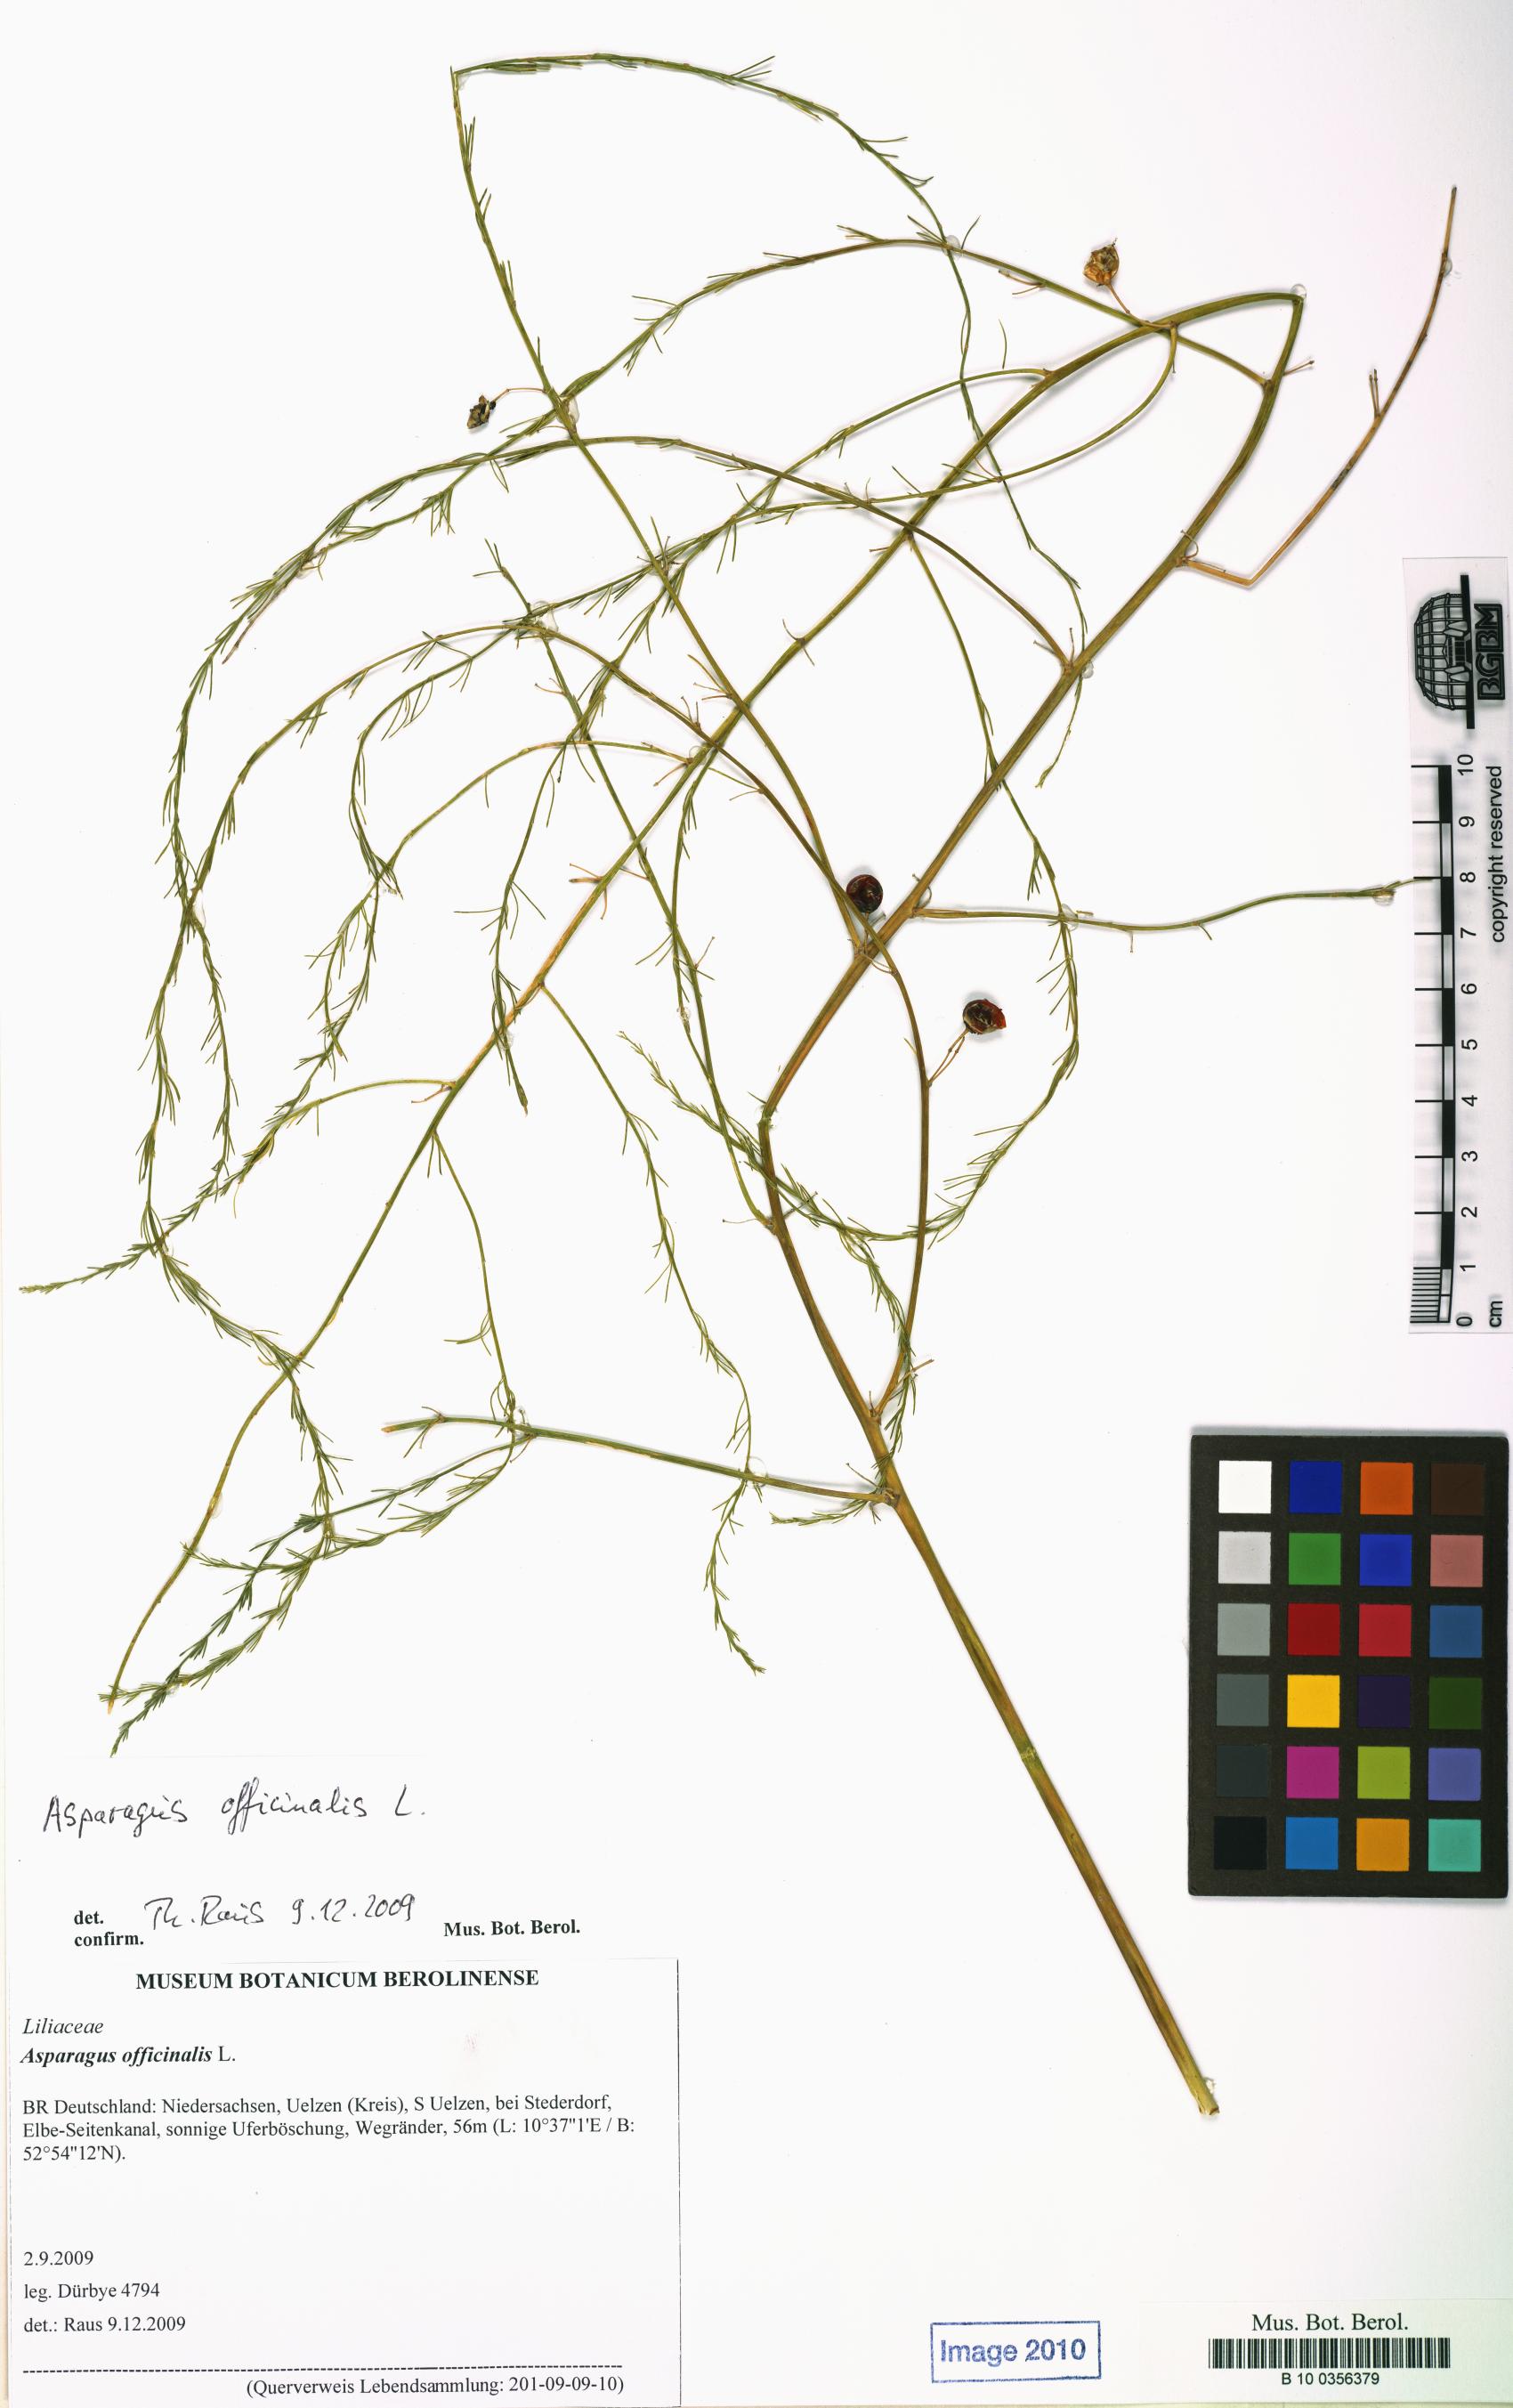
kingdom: Plantae
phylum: Tracheophyta
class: Liliopsida
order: Asparagales
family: Asparagaceae
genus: Asparagus
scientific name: Asparagus officinalis
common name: Garden asparagus
